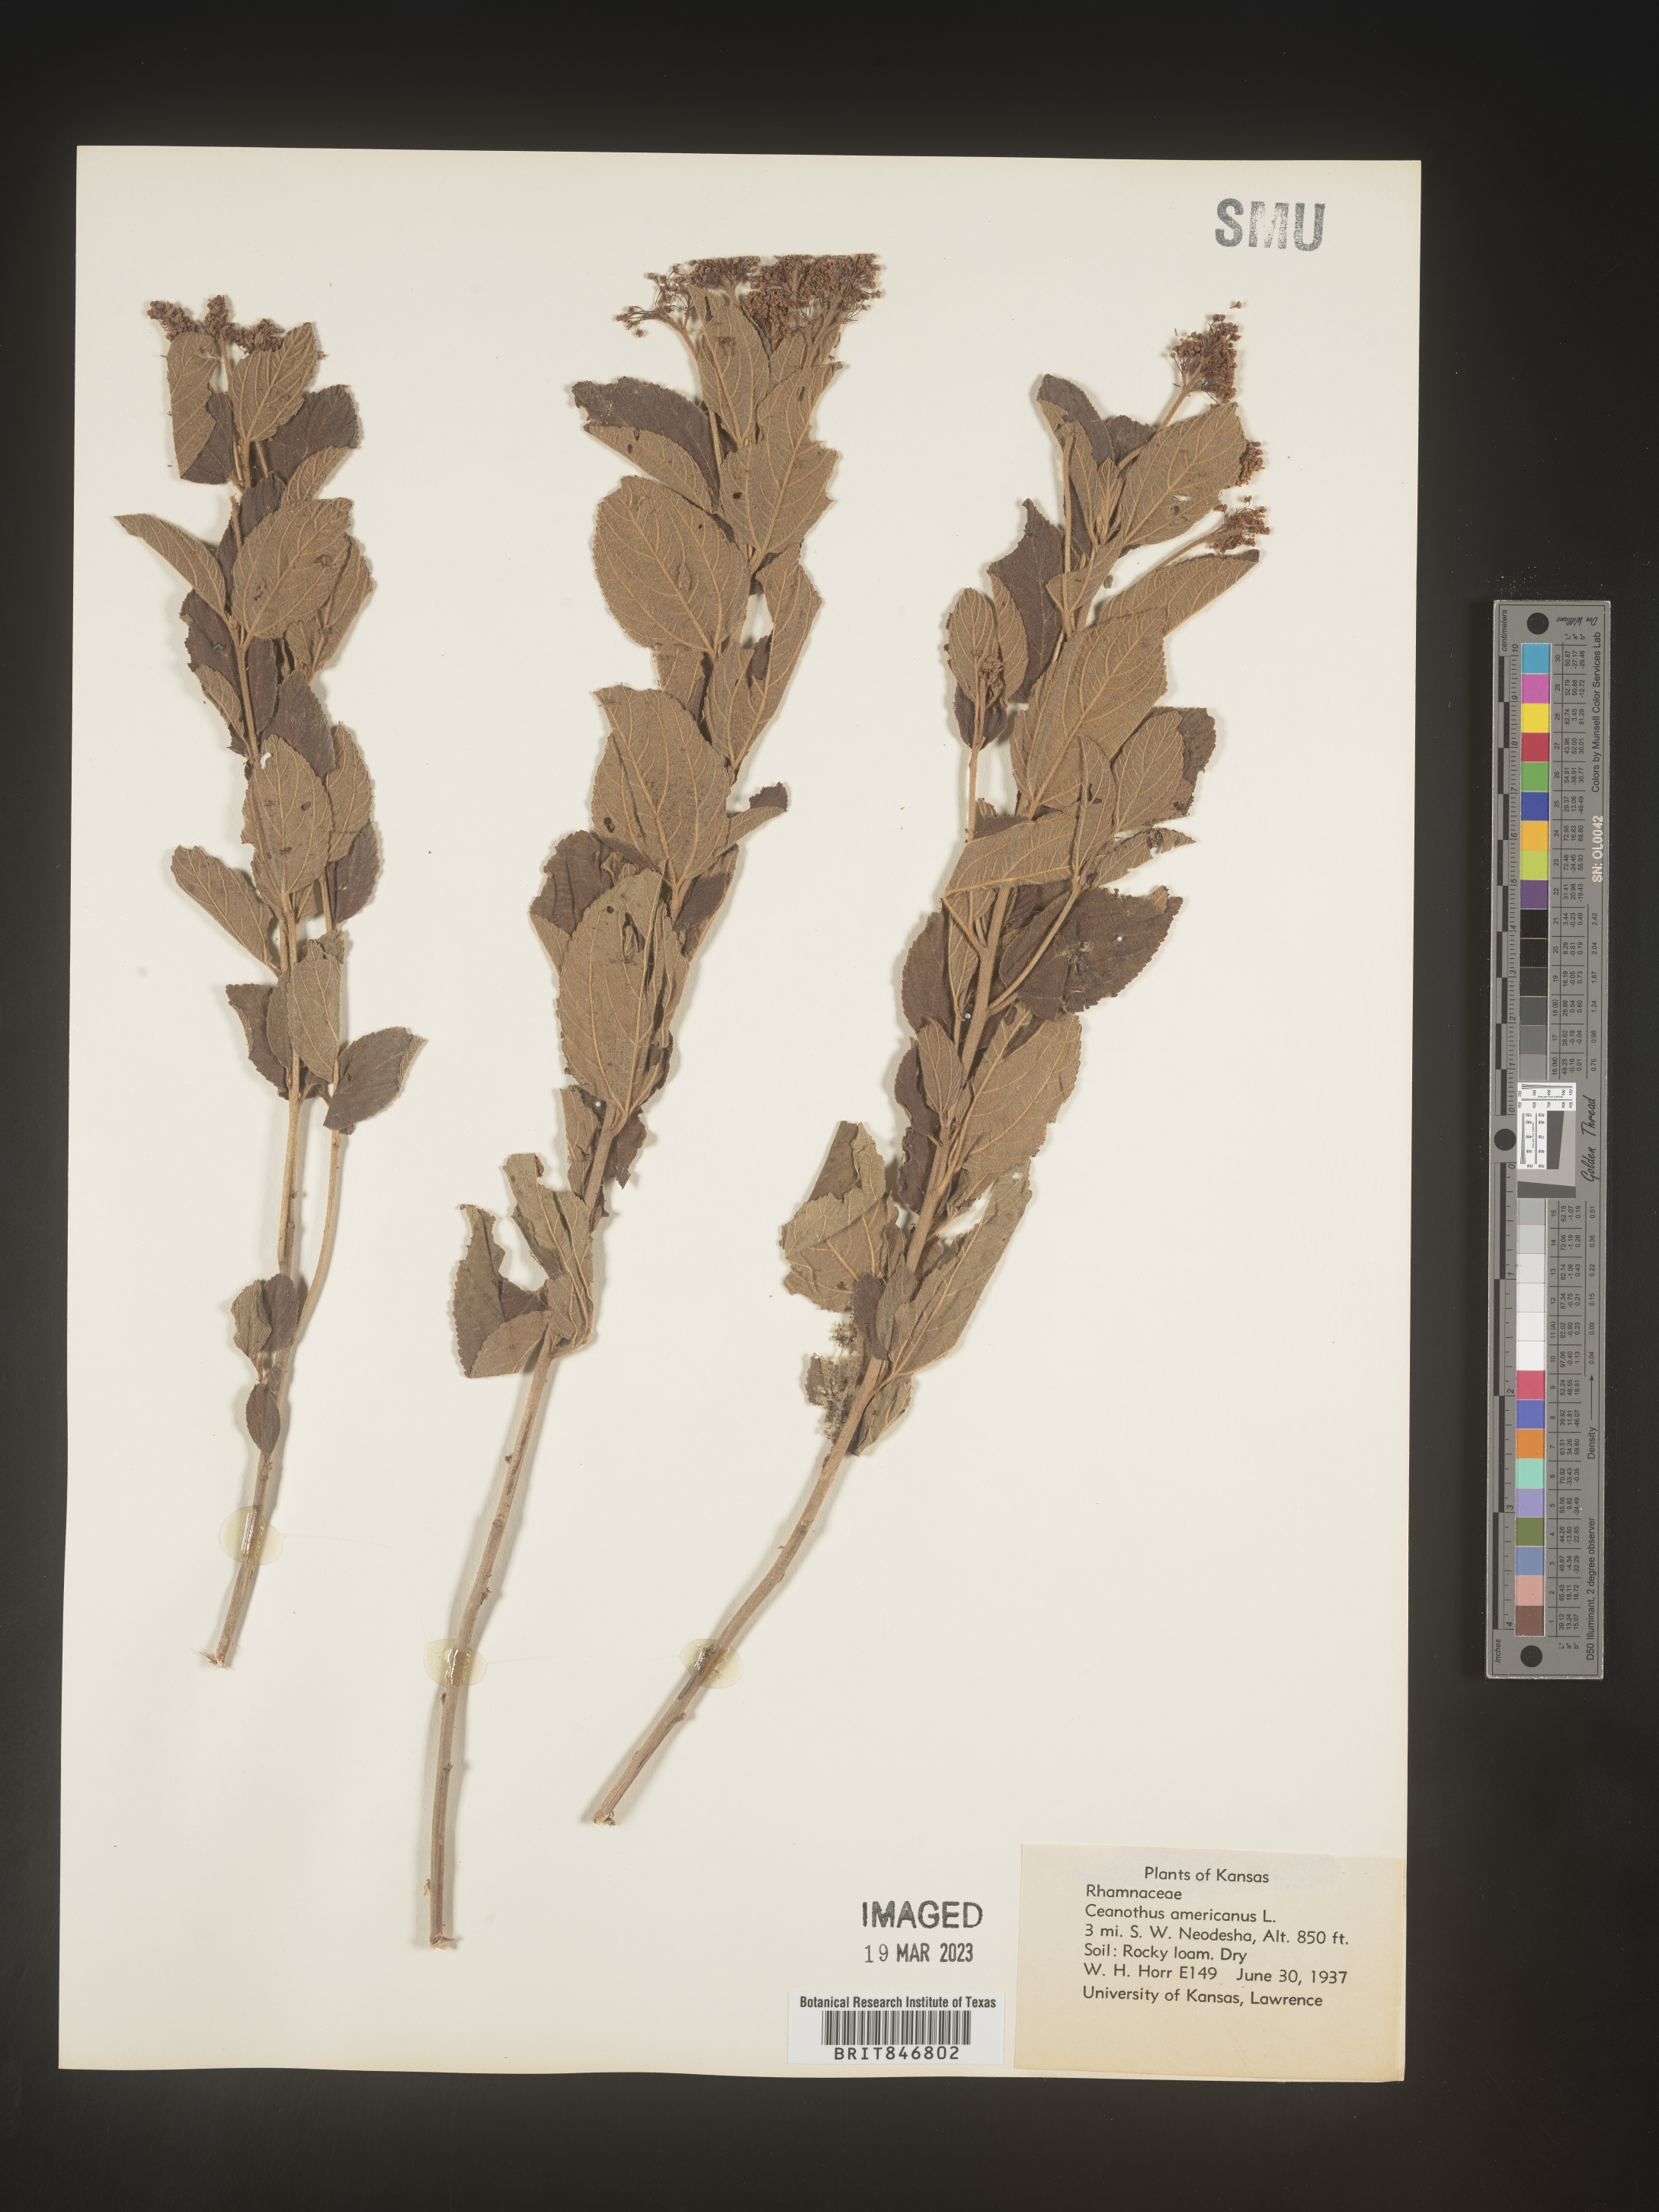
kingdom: Plantae
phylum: Tracheophyta
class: Magnoliopsida
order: Rosales
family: Rhamnaceae
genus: Ceanothus
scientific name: Ceanothus americanus
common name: Redroot
